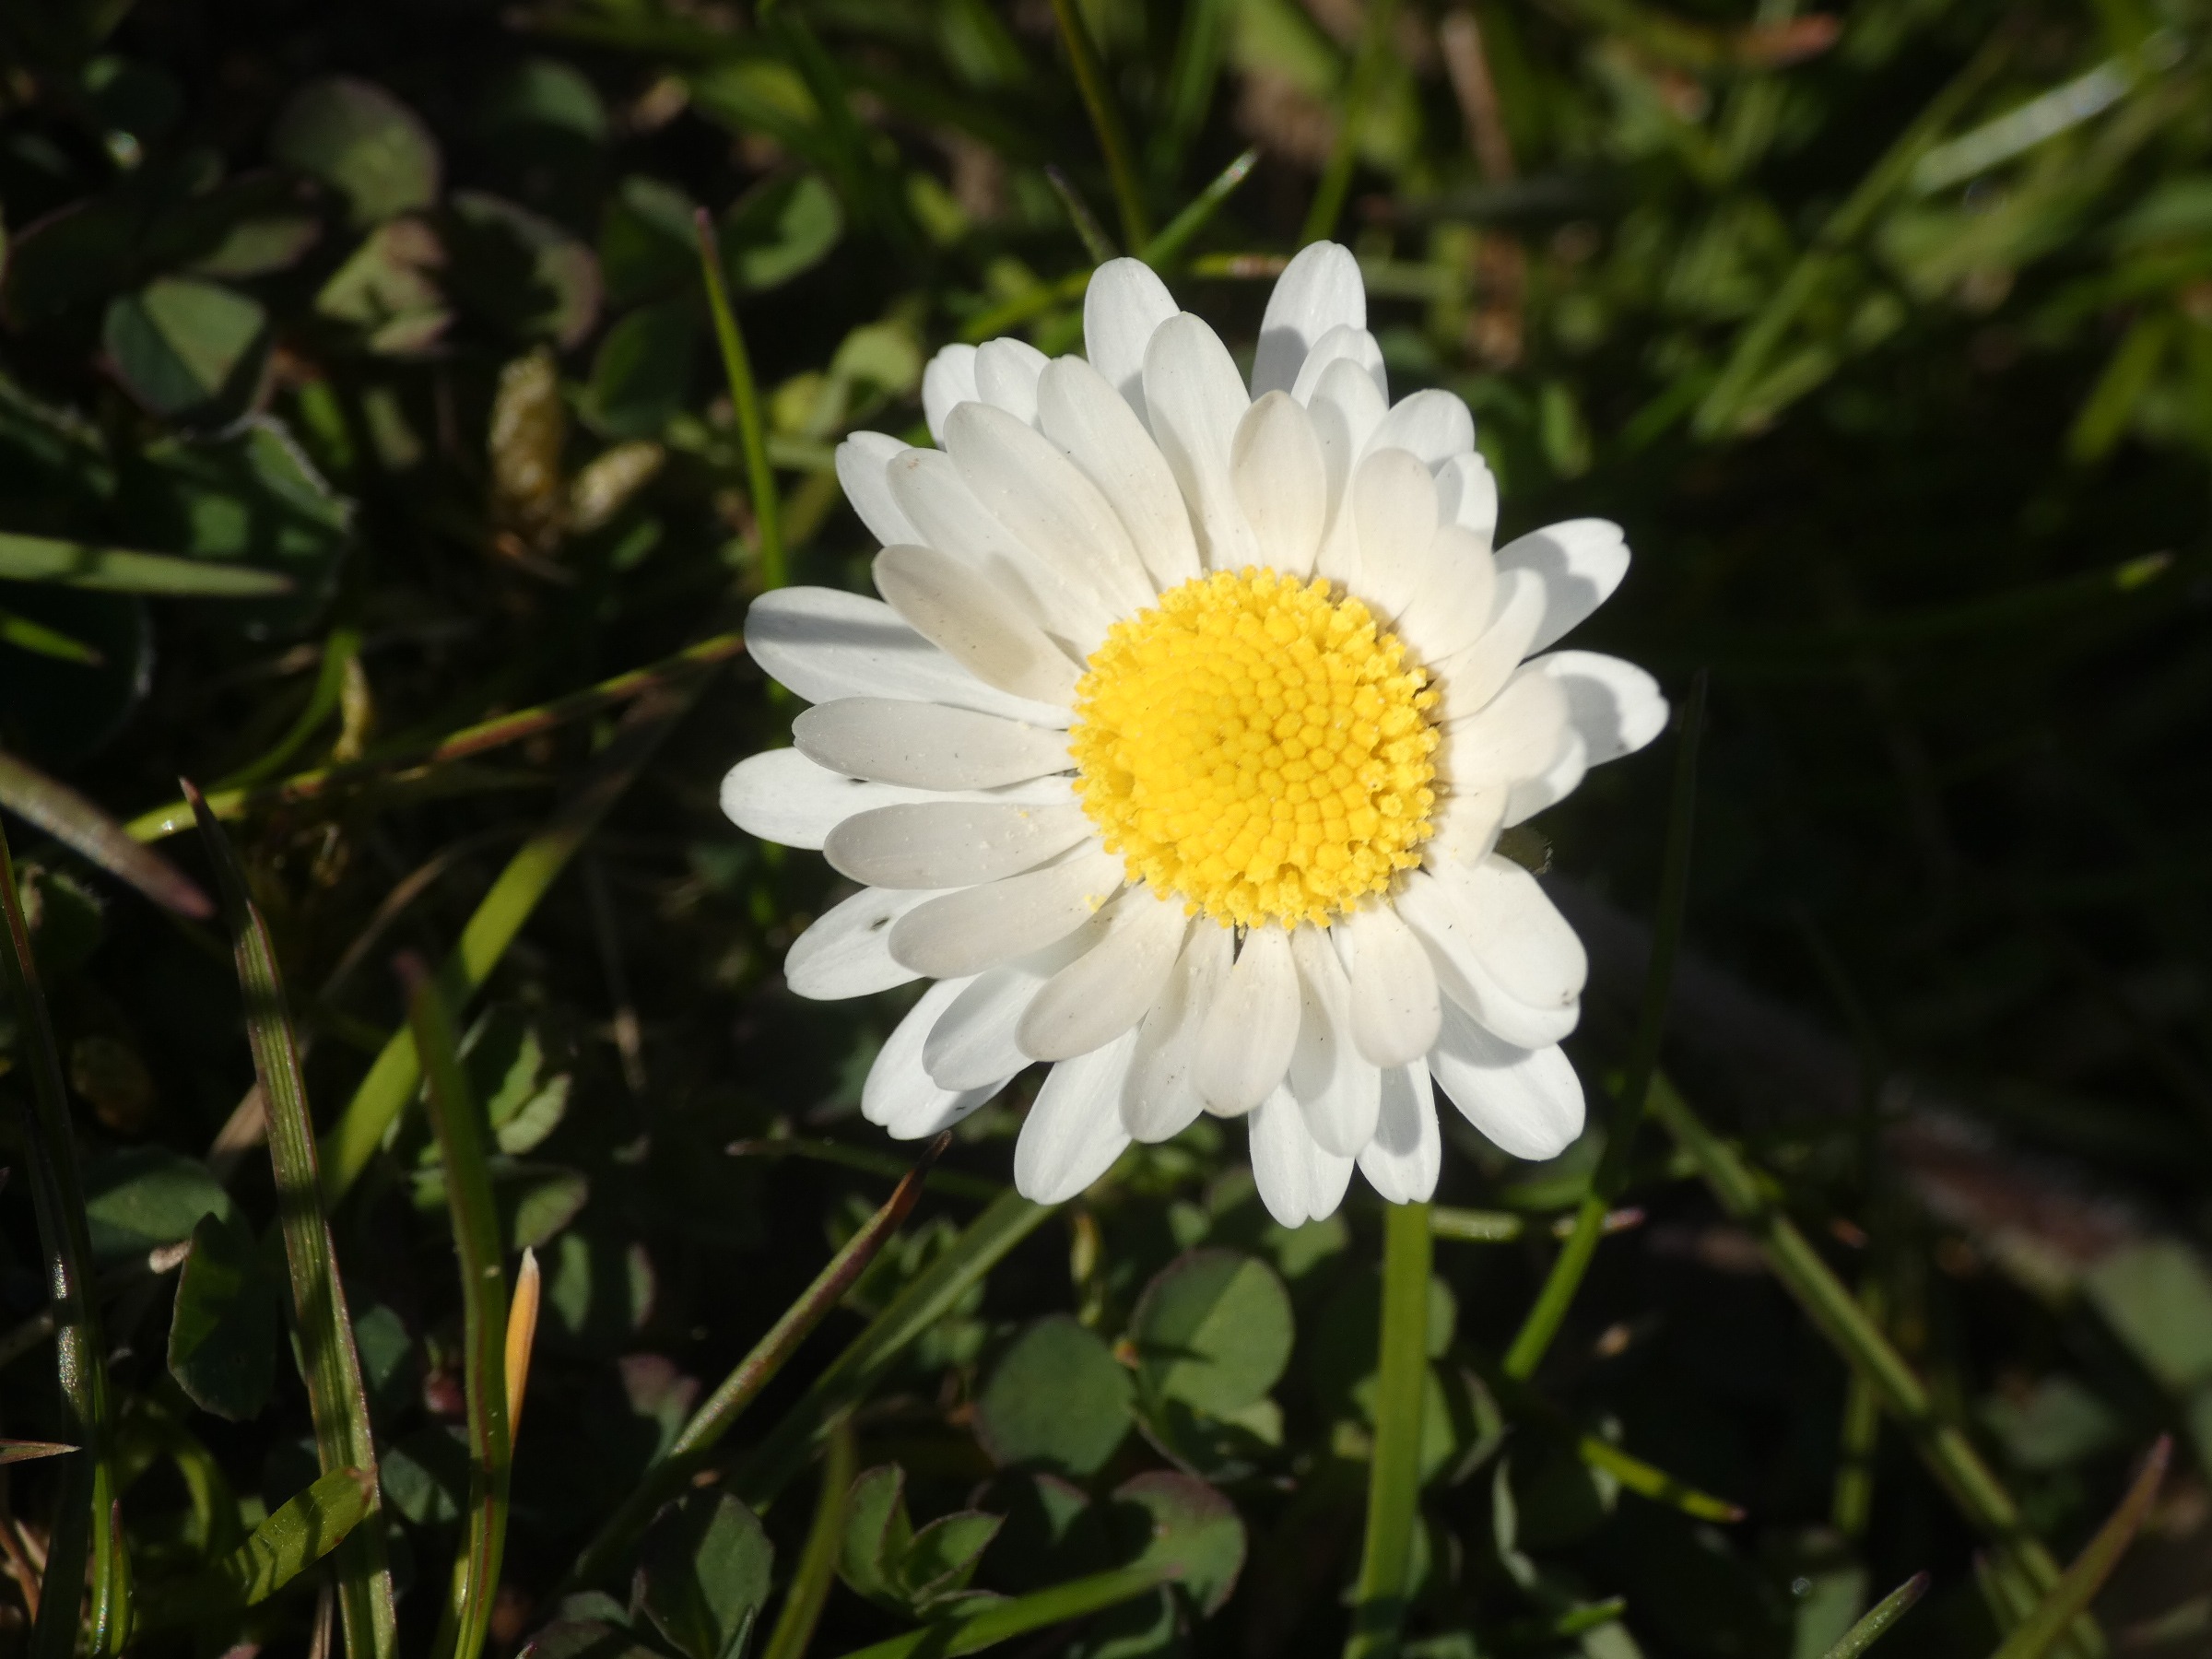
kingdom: Plantae
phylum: Tracheophyta
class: Magnoliopsida
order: Asterales
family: Asteraceae
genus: Bellis
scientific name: Bellis perennis
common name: Tusindfryd
